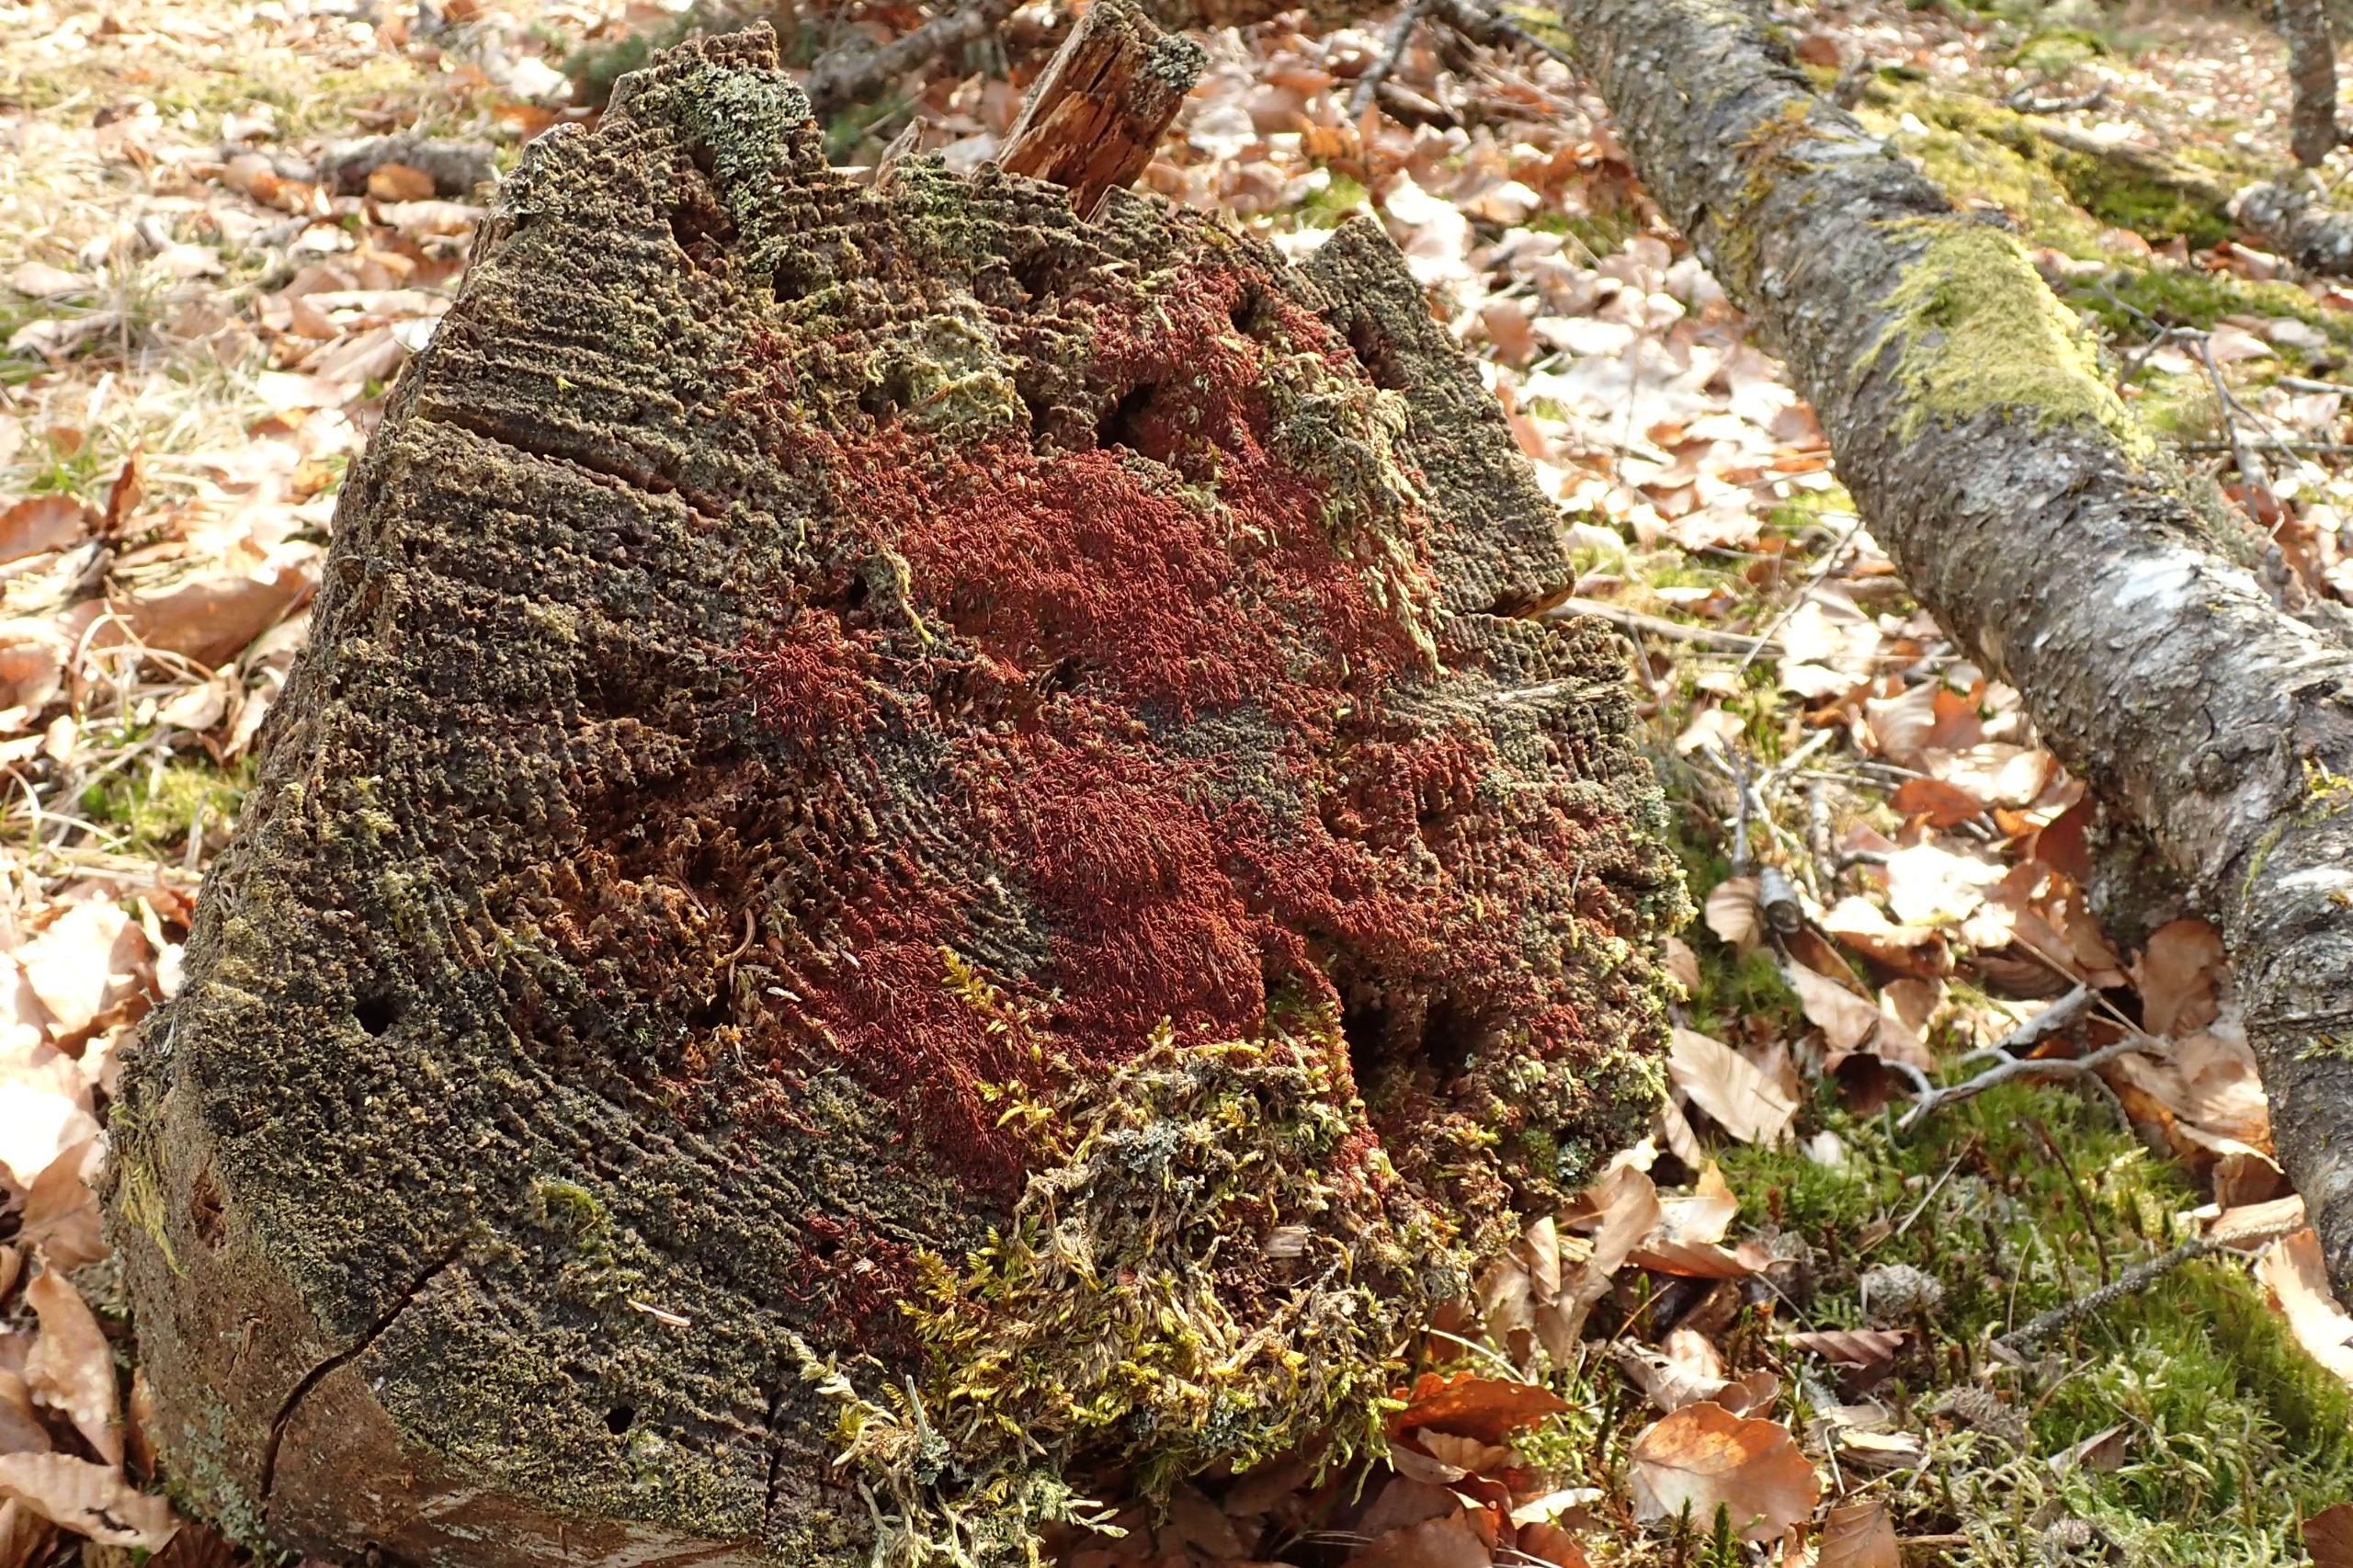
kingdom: Plantae
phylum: Marchantiophyta
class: Jungermanniopsida
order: Jungermanniales
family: Cephaloziaceae
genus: Nowellia
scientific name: Nowellia curvifolia
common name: Krumbladet stødmos
